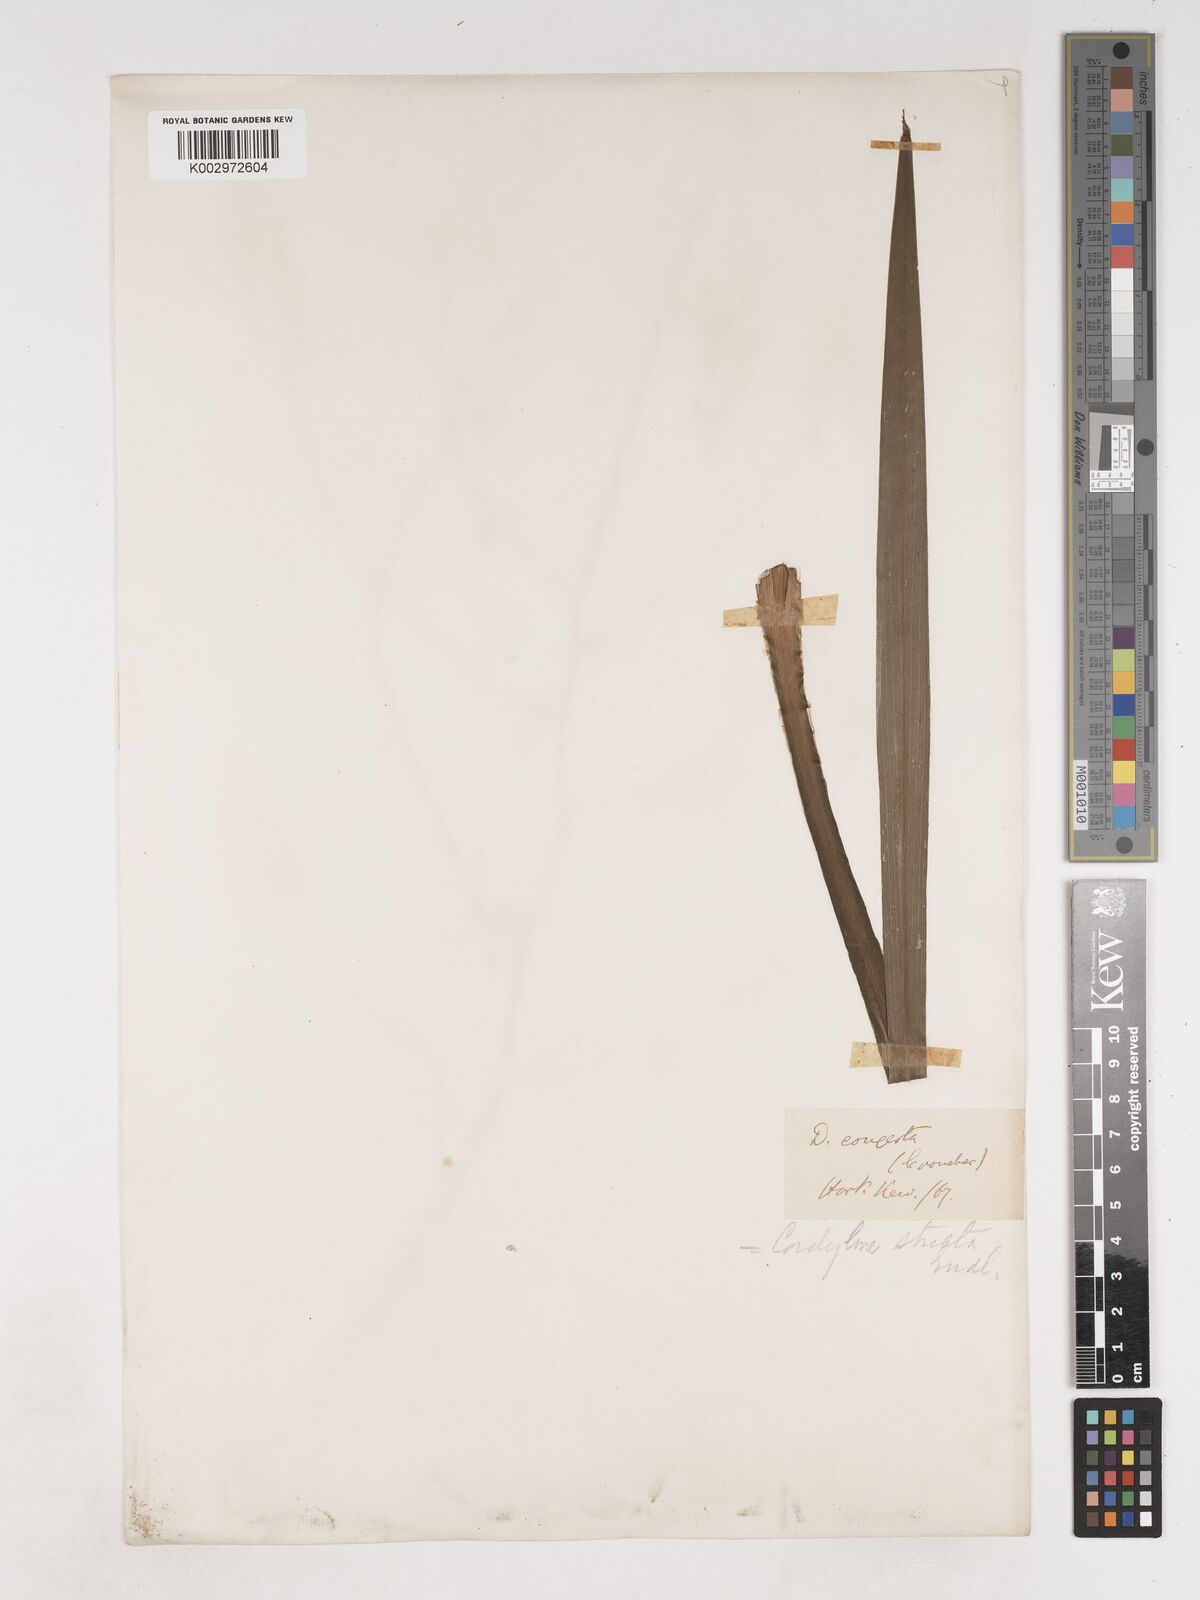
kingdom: Plantae
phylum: Tracheophyta
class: Liliopsida
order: Asparagales
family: Asparagaceae
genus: Cordyline
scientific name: Cordyline stricta
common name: Narrow-leaf palm-lily
